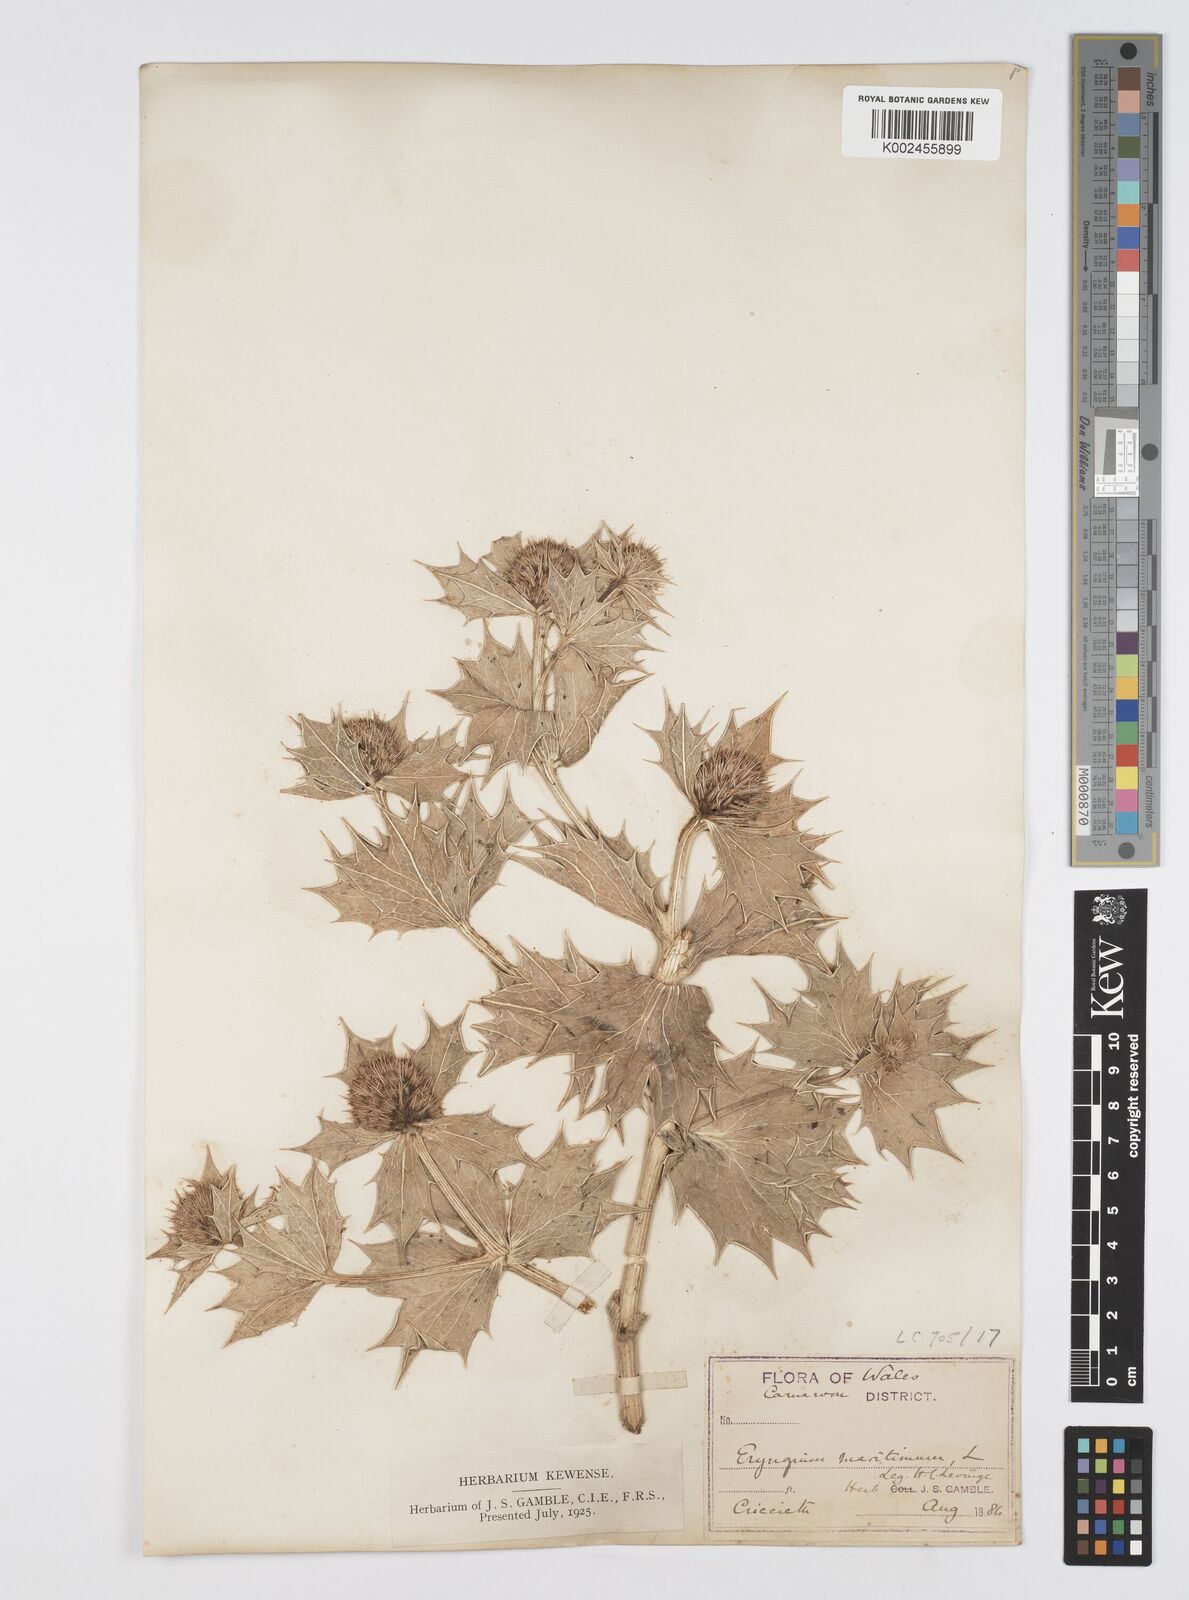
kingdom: Plantae
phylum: Tracheophyta
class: Magnoliopsida
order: Apiales
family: Apiaceae
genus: Eryngium
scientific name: Eryngium maritimum
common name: Sea-holly
